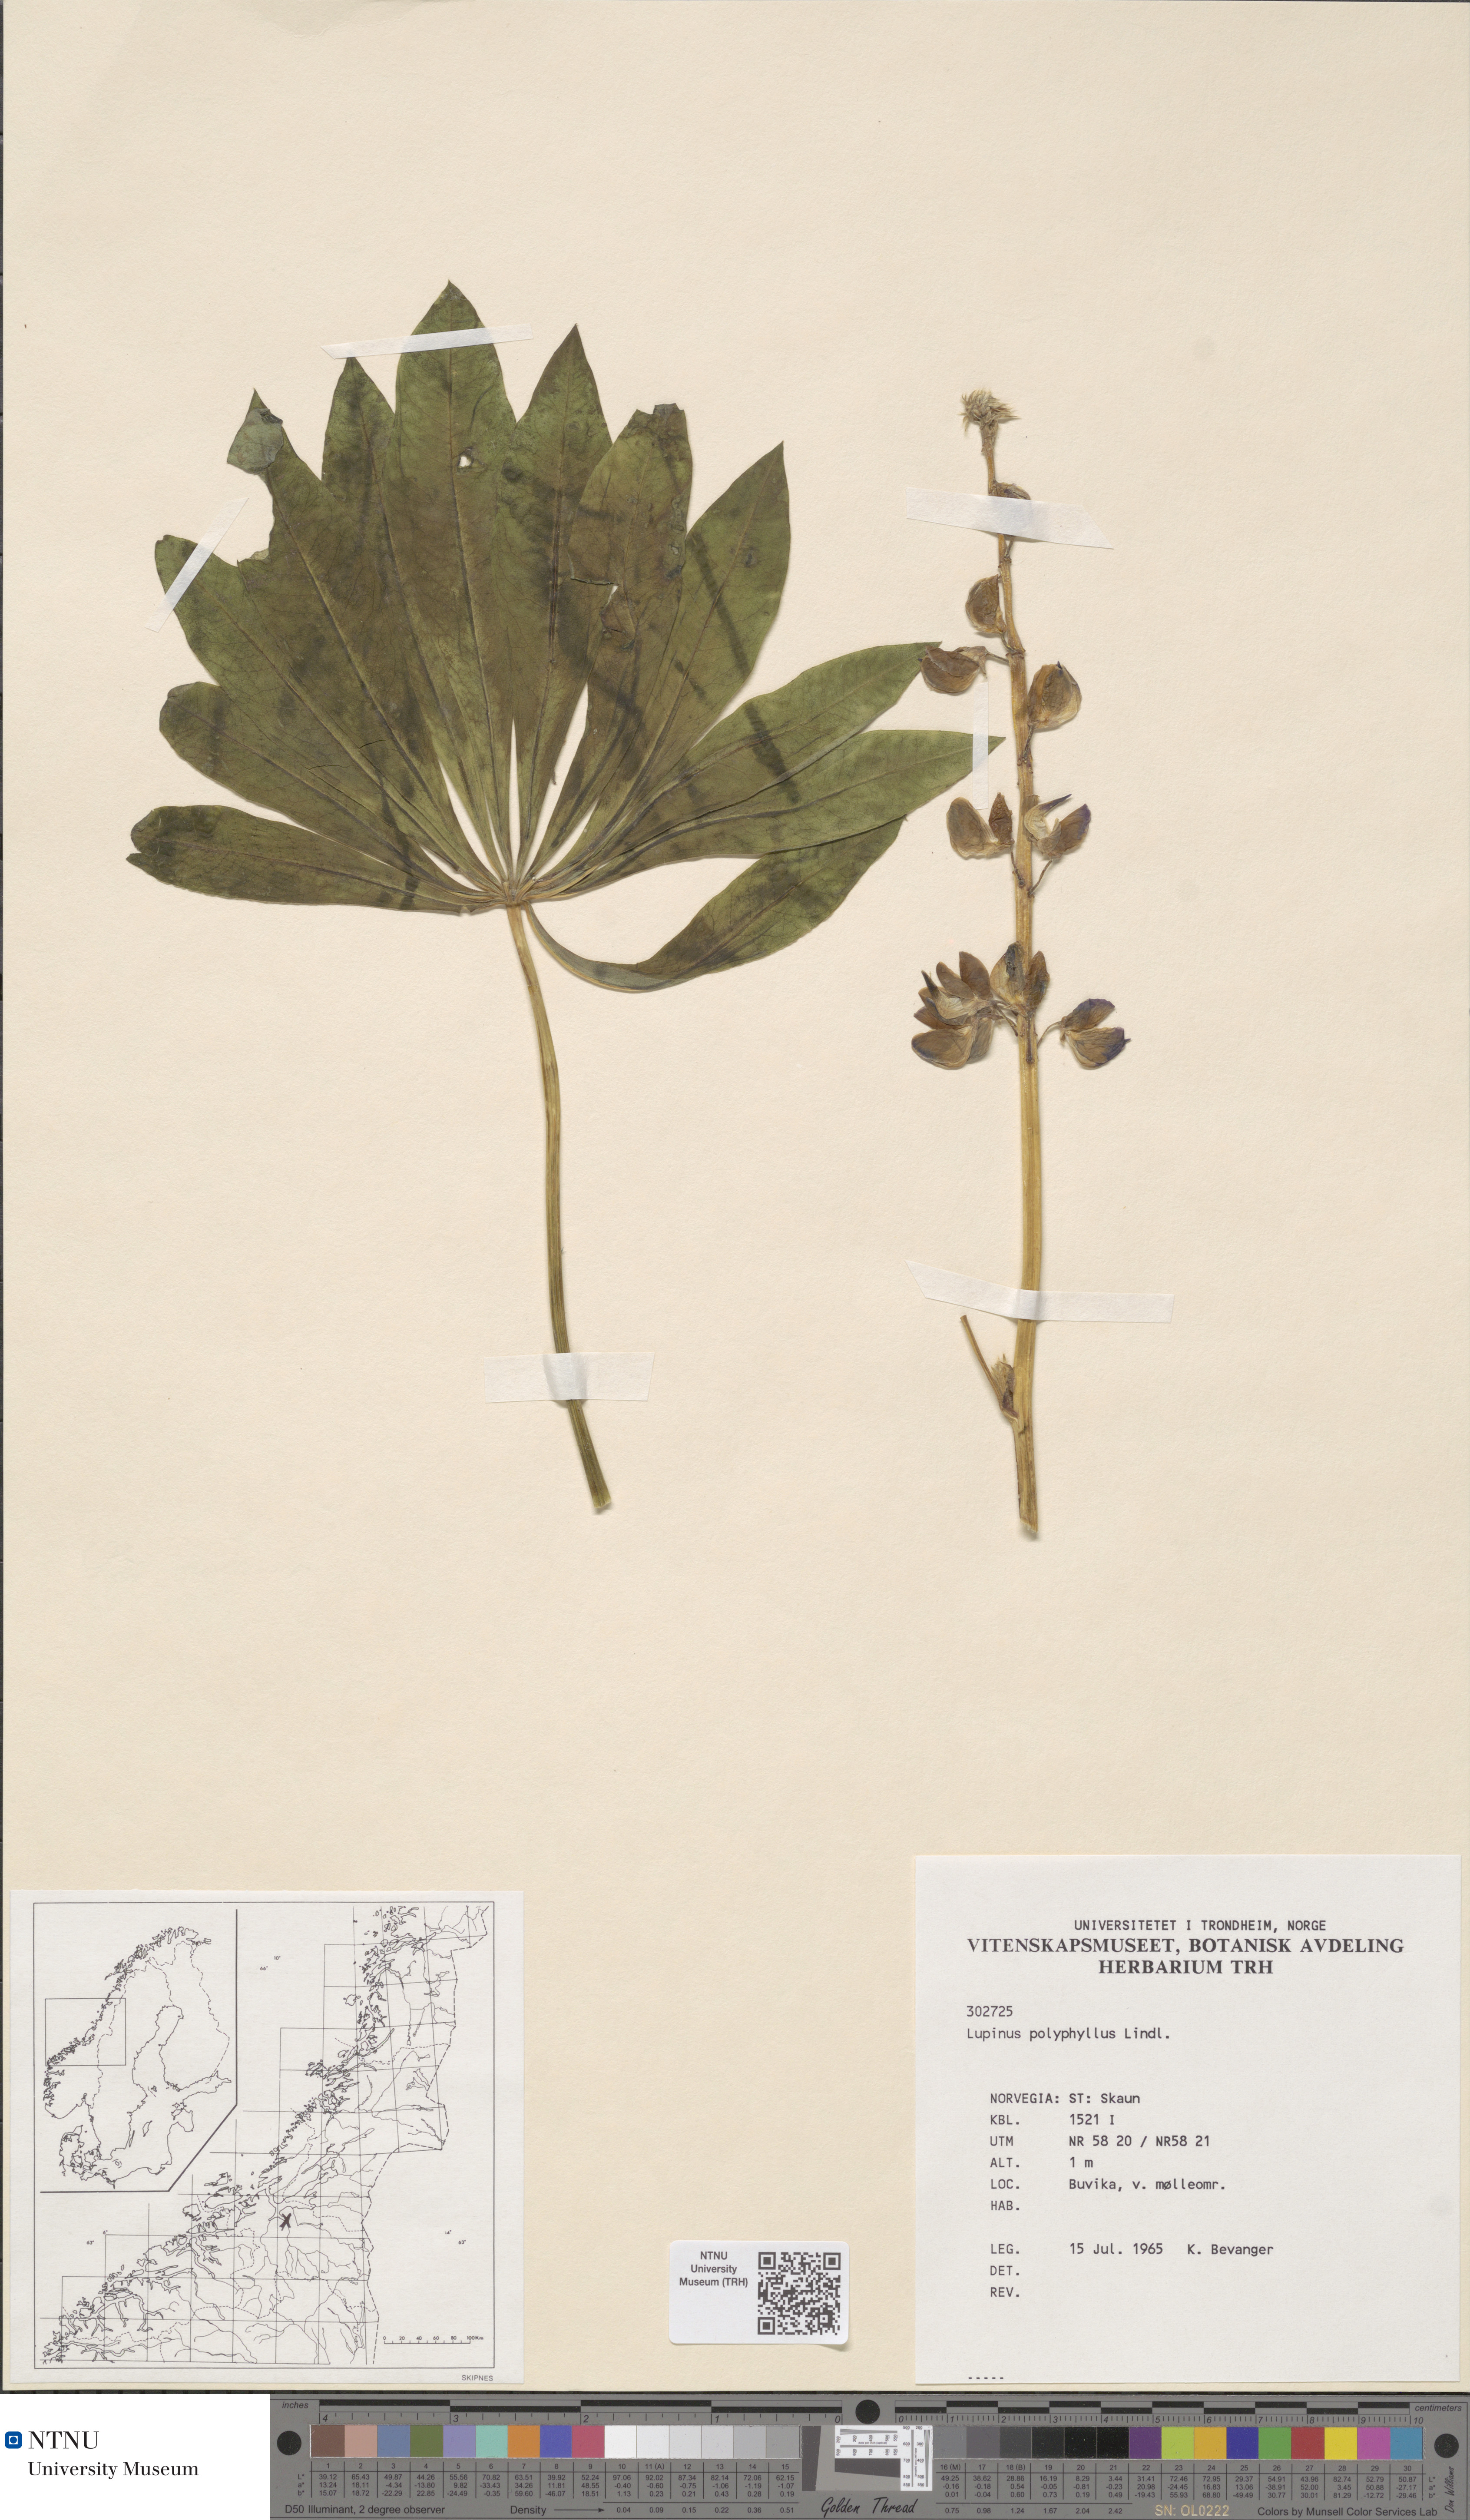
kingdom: Plantae
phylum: Tracheophyta
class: Magnoliopsida
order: Fabales
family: Fabaceae
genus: Lupinus
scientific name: Lupinus polyphyllus
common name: Garden lupin
